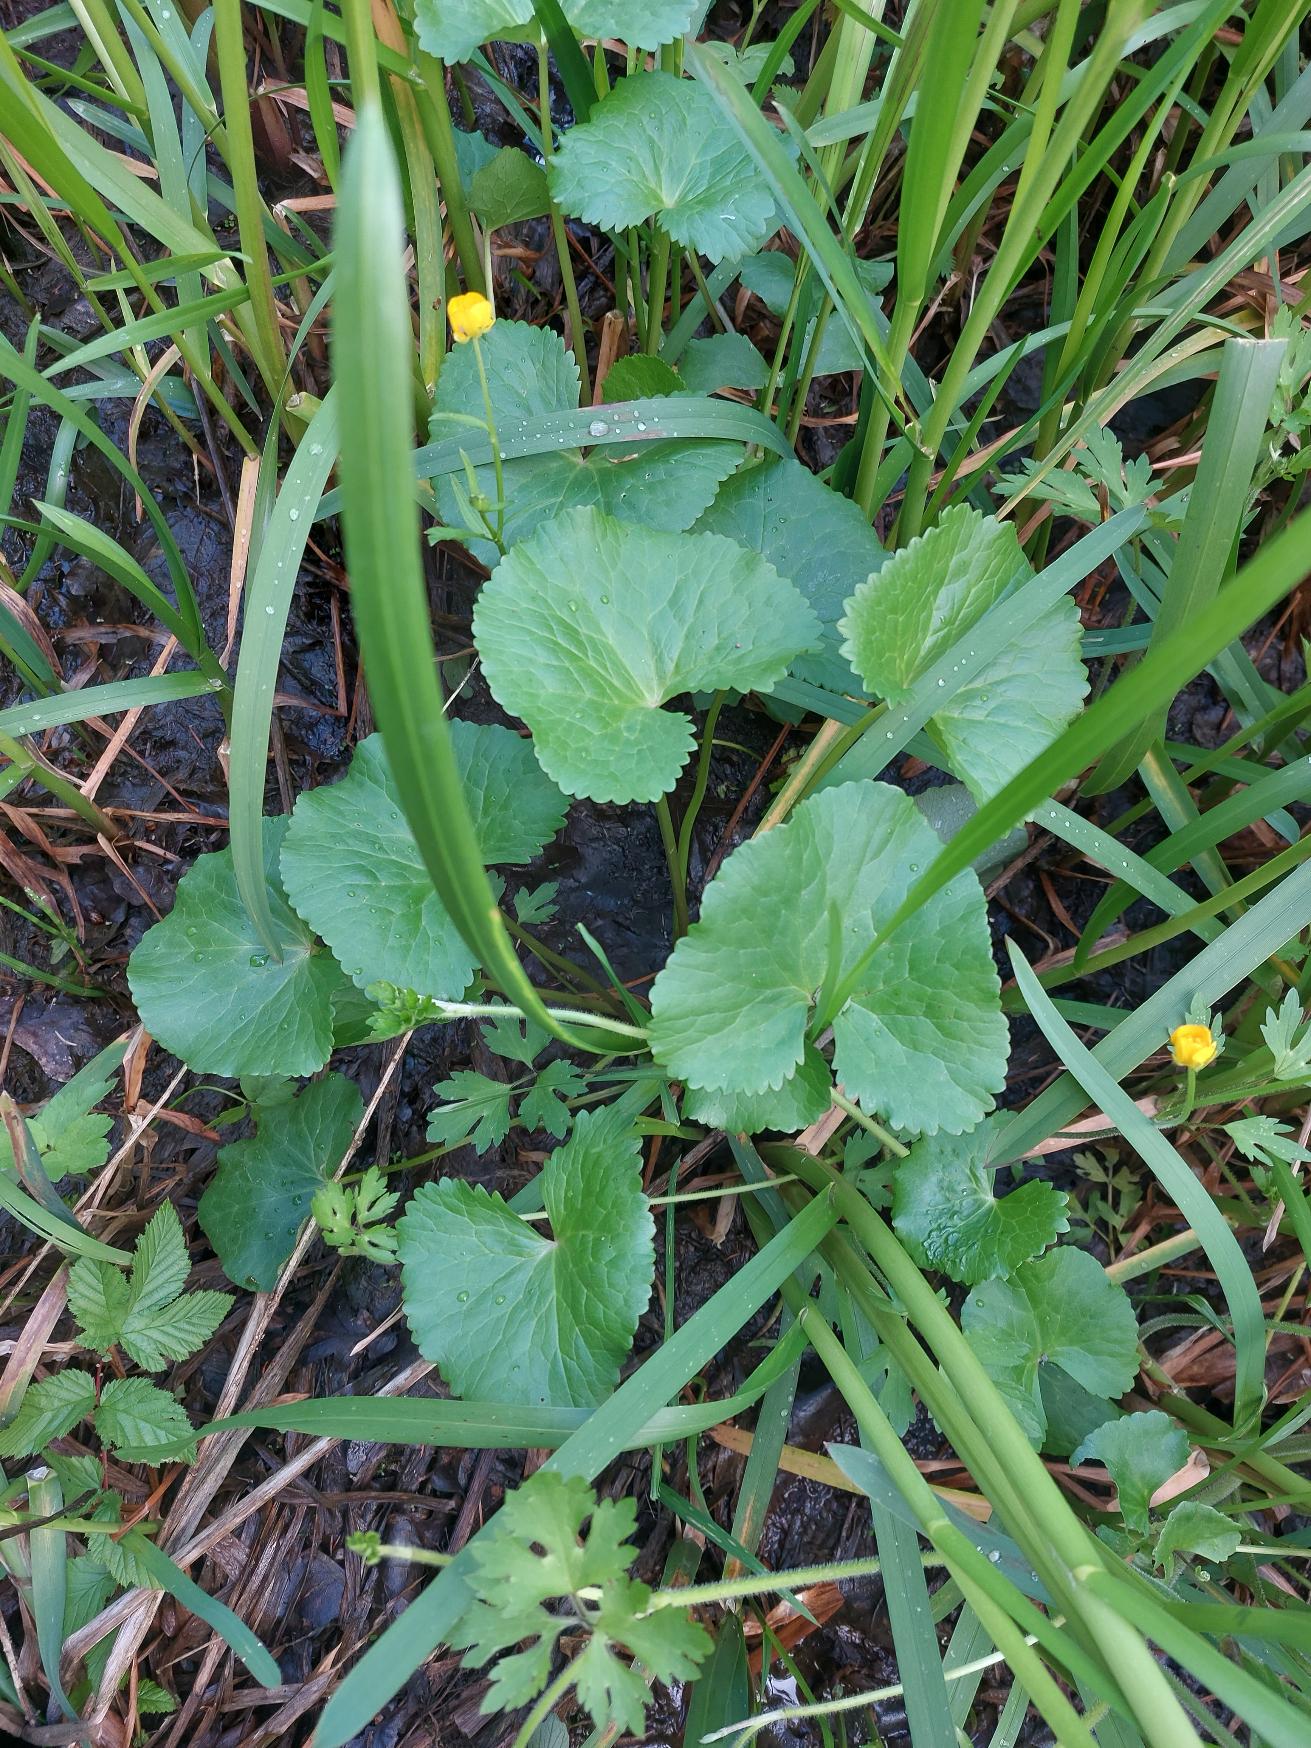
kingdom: Plantae
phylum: Tracheophyta
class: Magnoliopsida
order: Ranunculales
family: Ranunculaceae
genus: Caltha
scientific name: Caltha palustris
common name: Eng-kabbeleje
